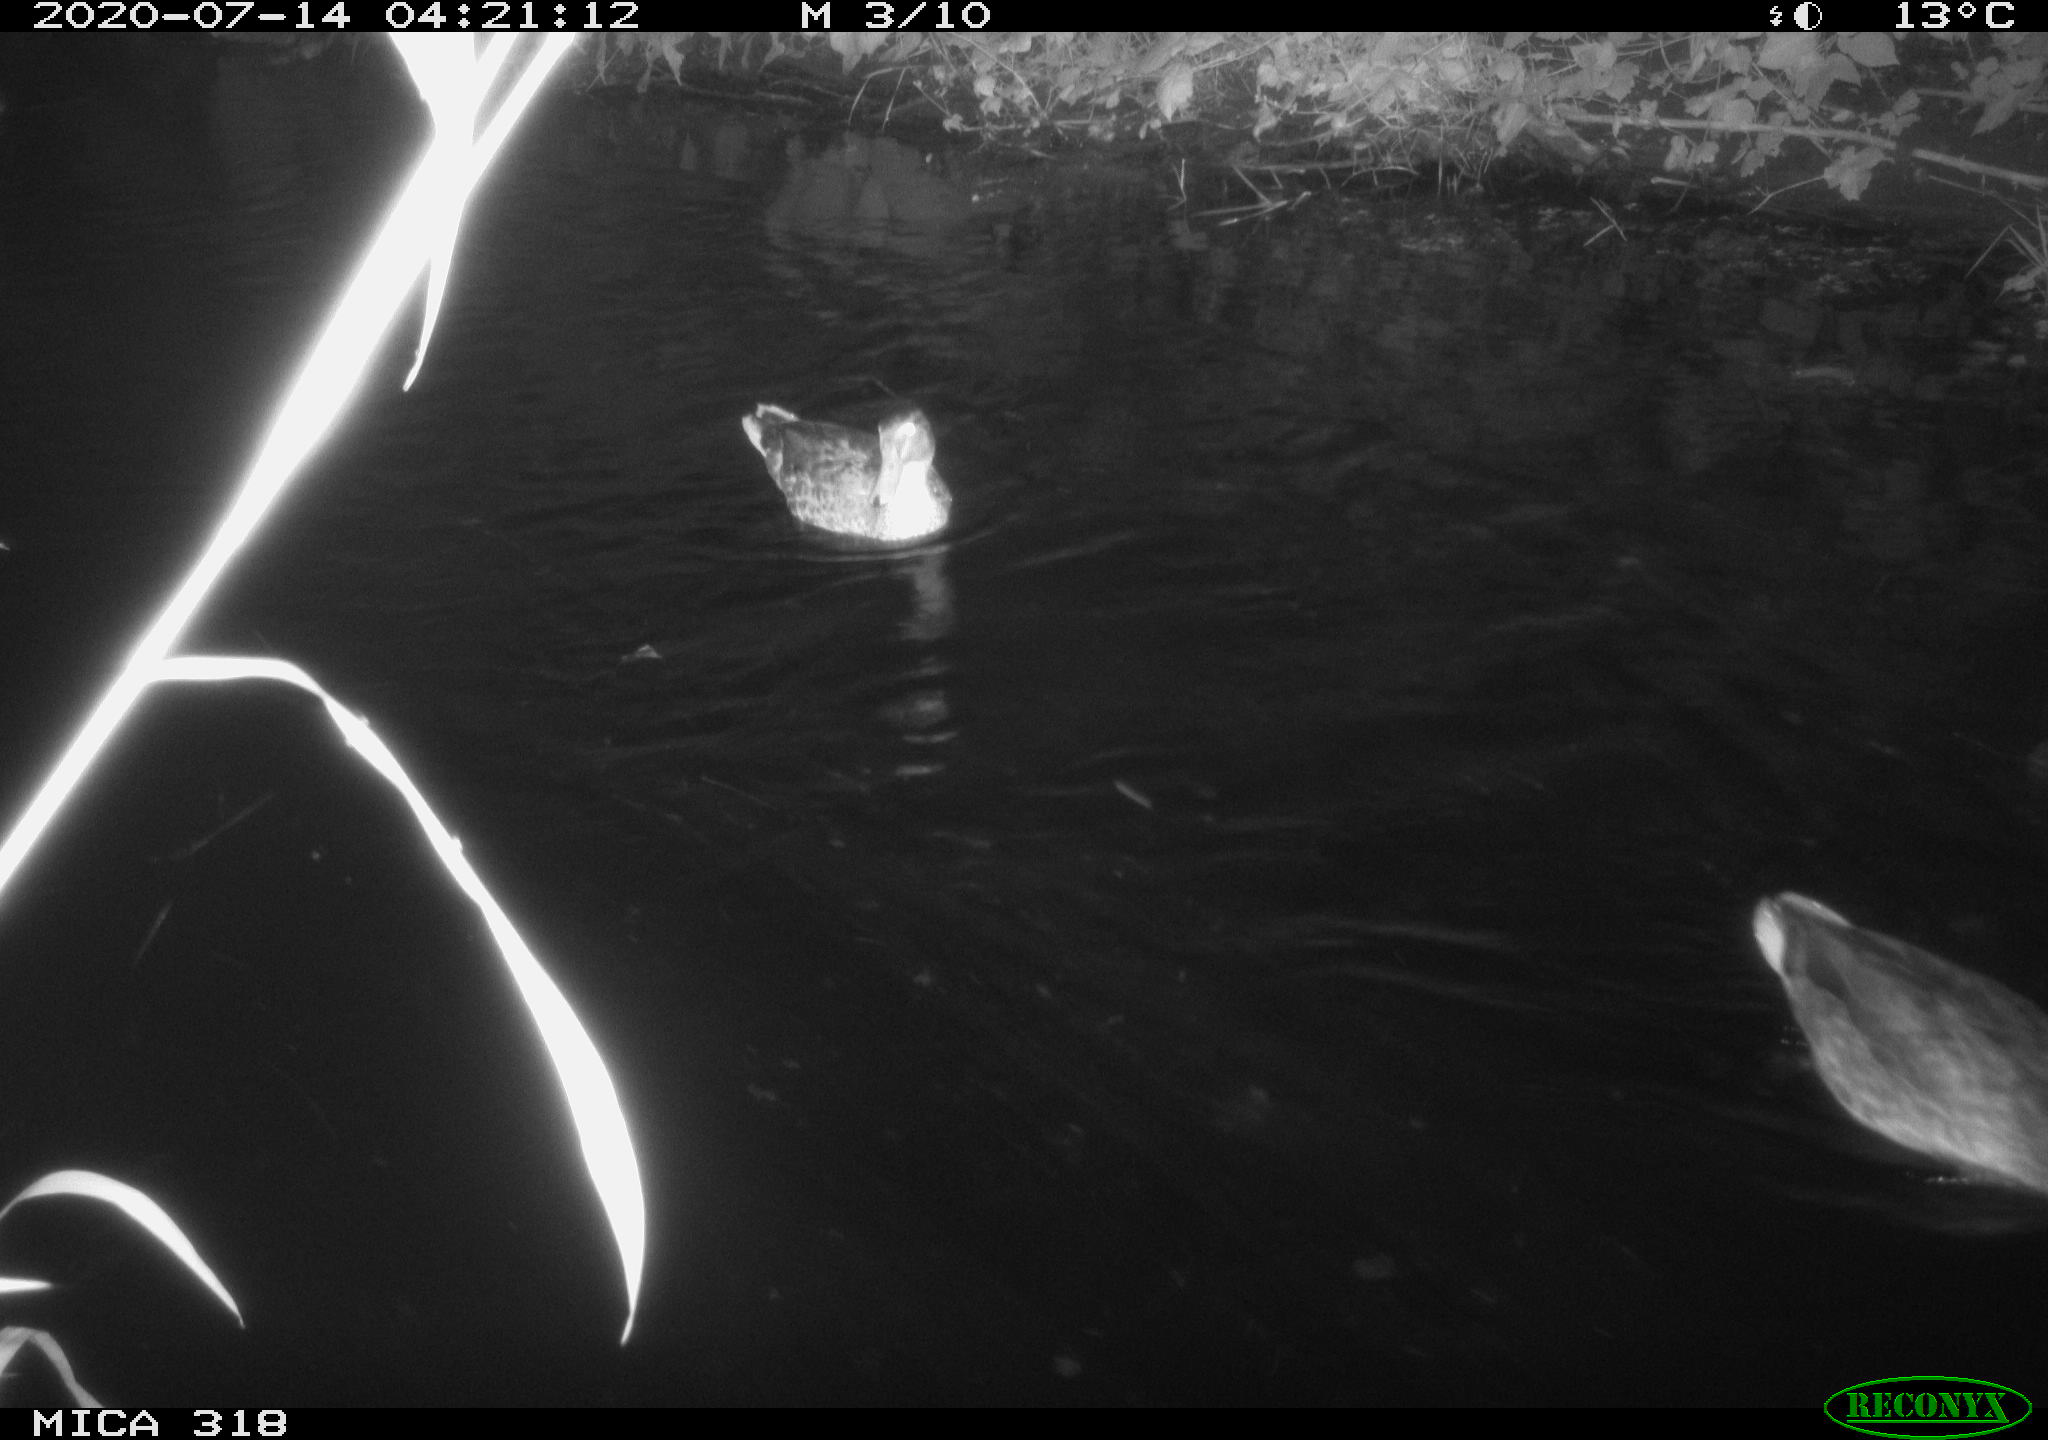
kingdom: Animalia
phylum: Chordata
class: Aves
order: Anseriformes
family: Anatidae
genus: Mareca
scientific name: Mareca strepera
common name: Gadwall
